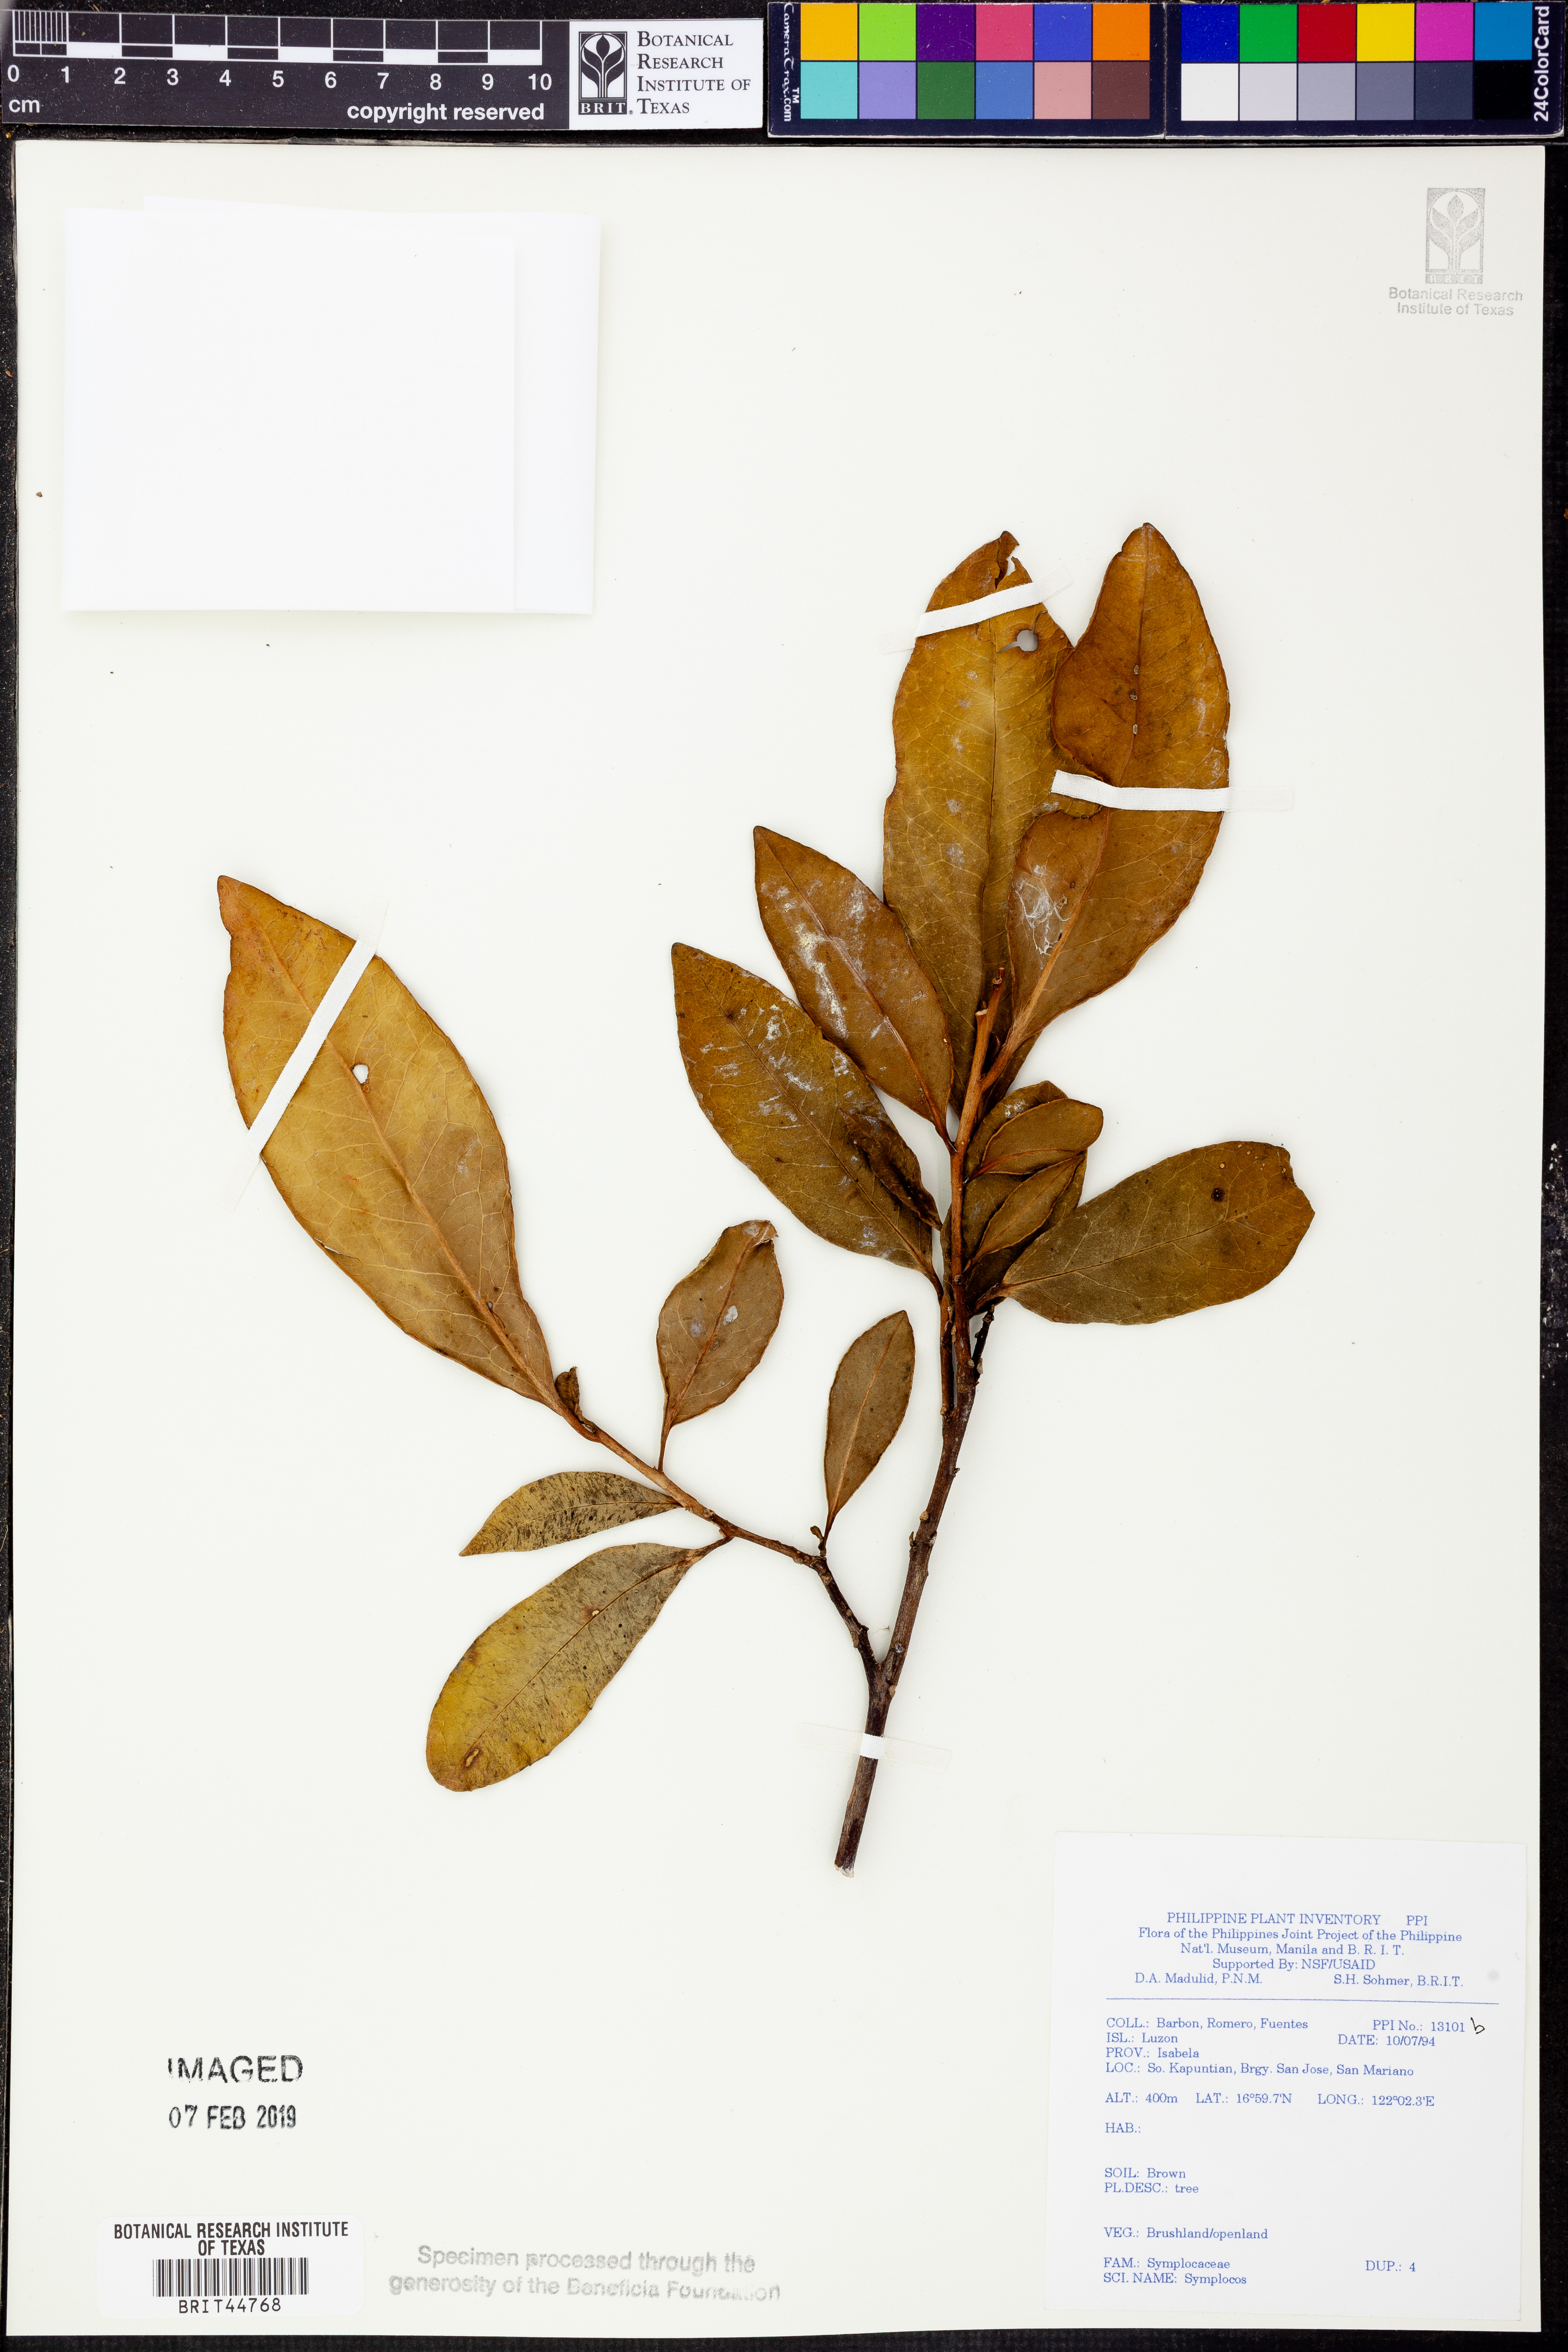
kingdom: Plantae
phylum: Tracheophyta
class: Magnoliopsida
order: Ericales
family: Symplocaceae
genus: Symplocos
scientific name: Symplocos lucida
